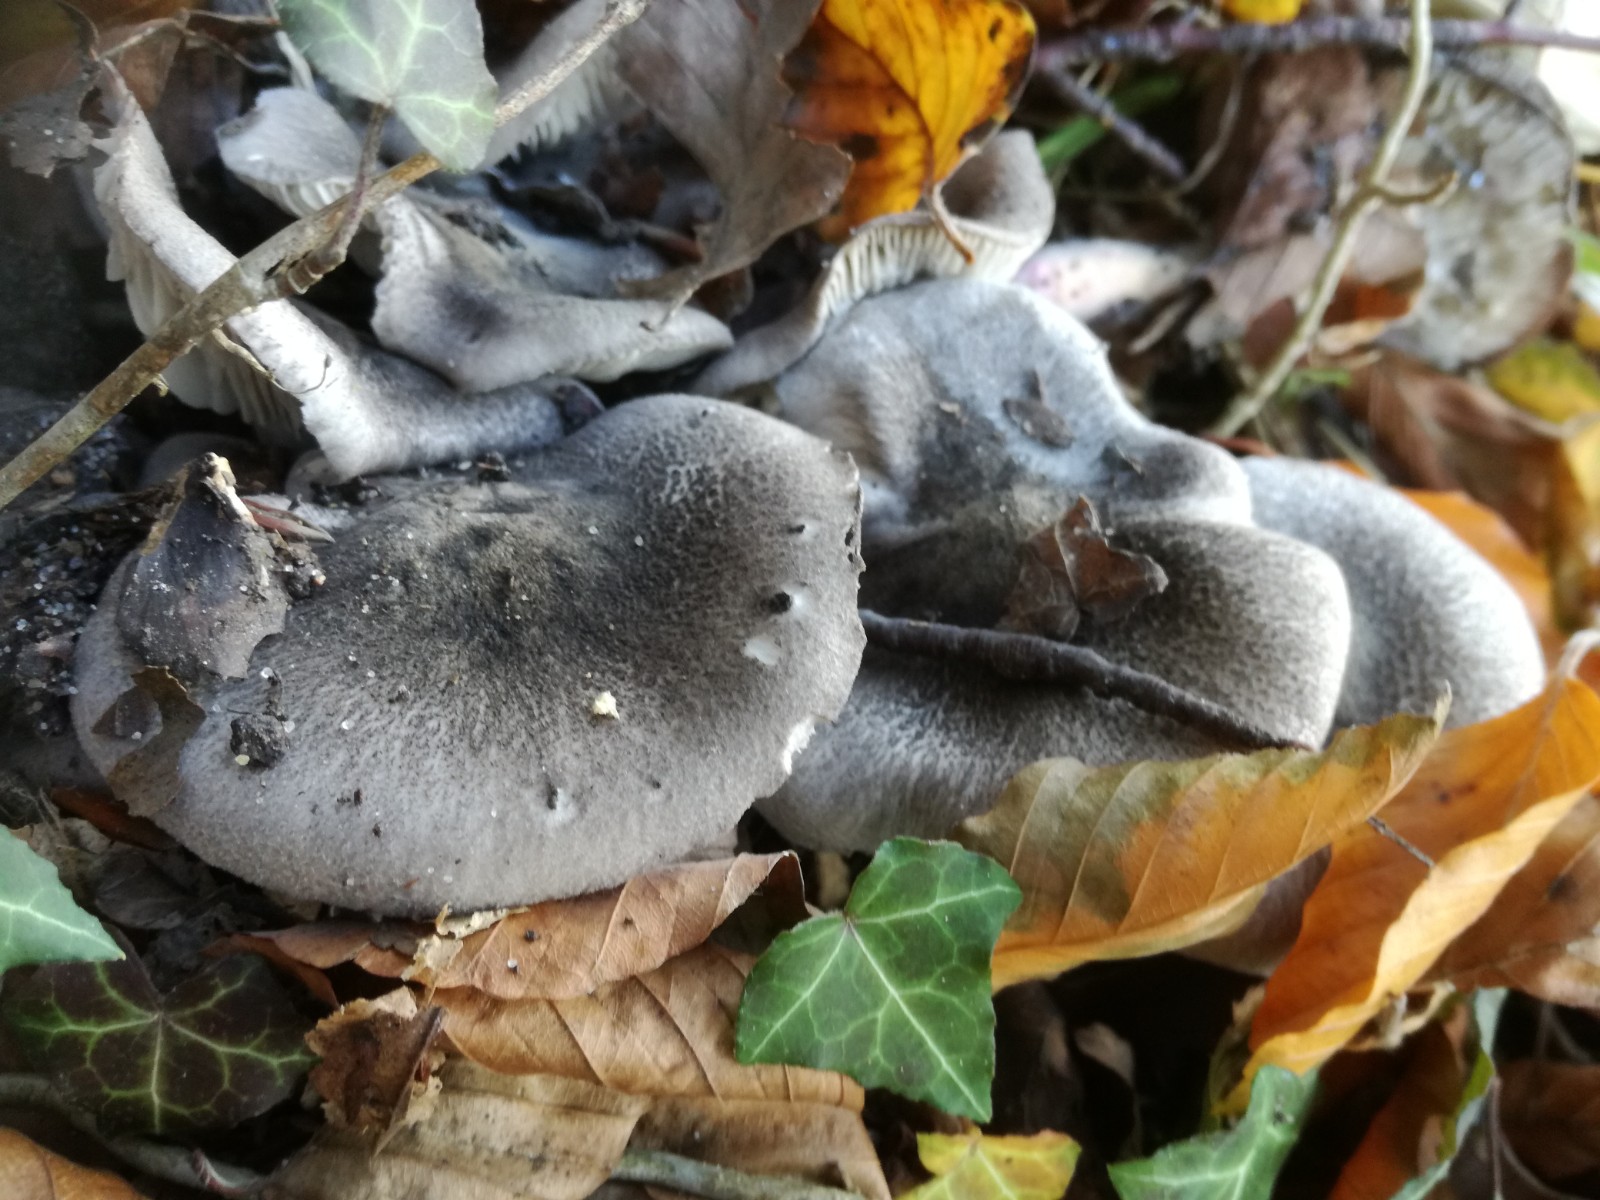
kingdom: Fungi
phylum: Basidiomycota
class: Agaricomycetes
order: Agaricales
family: Tricholomataceae
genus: Tricholoma
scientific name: Tricholoma orirubens
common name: rødbladet ridderhat
